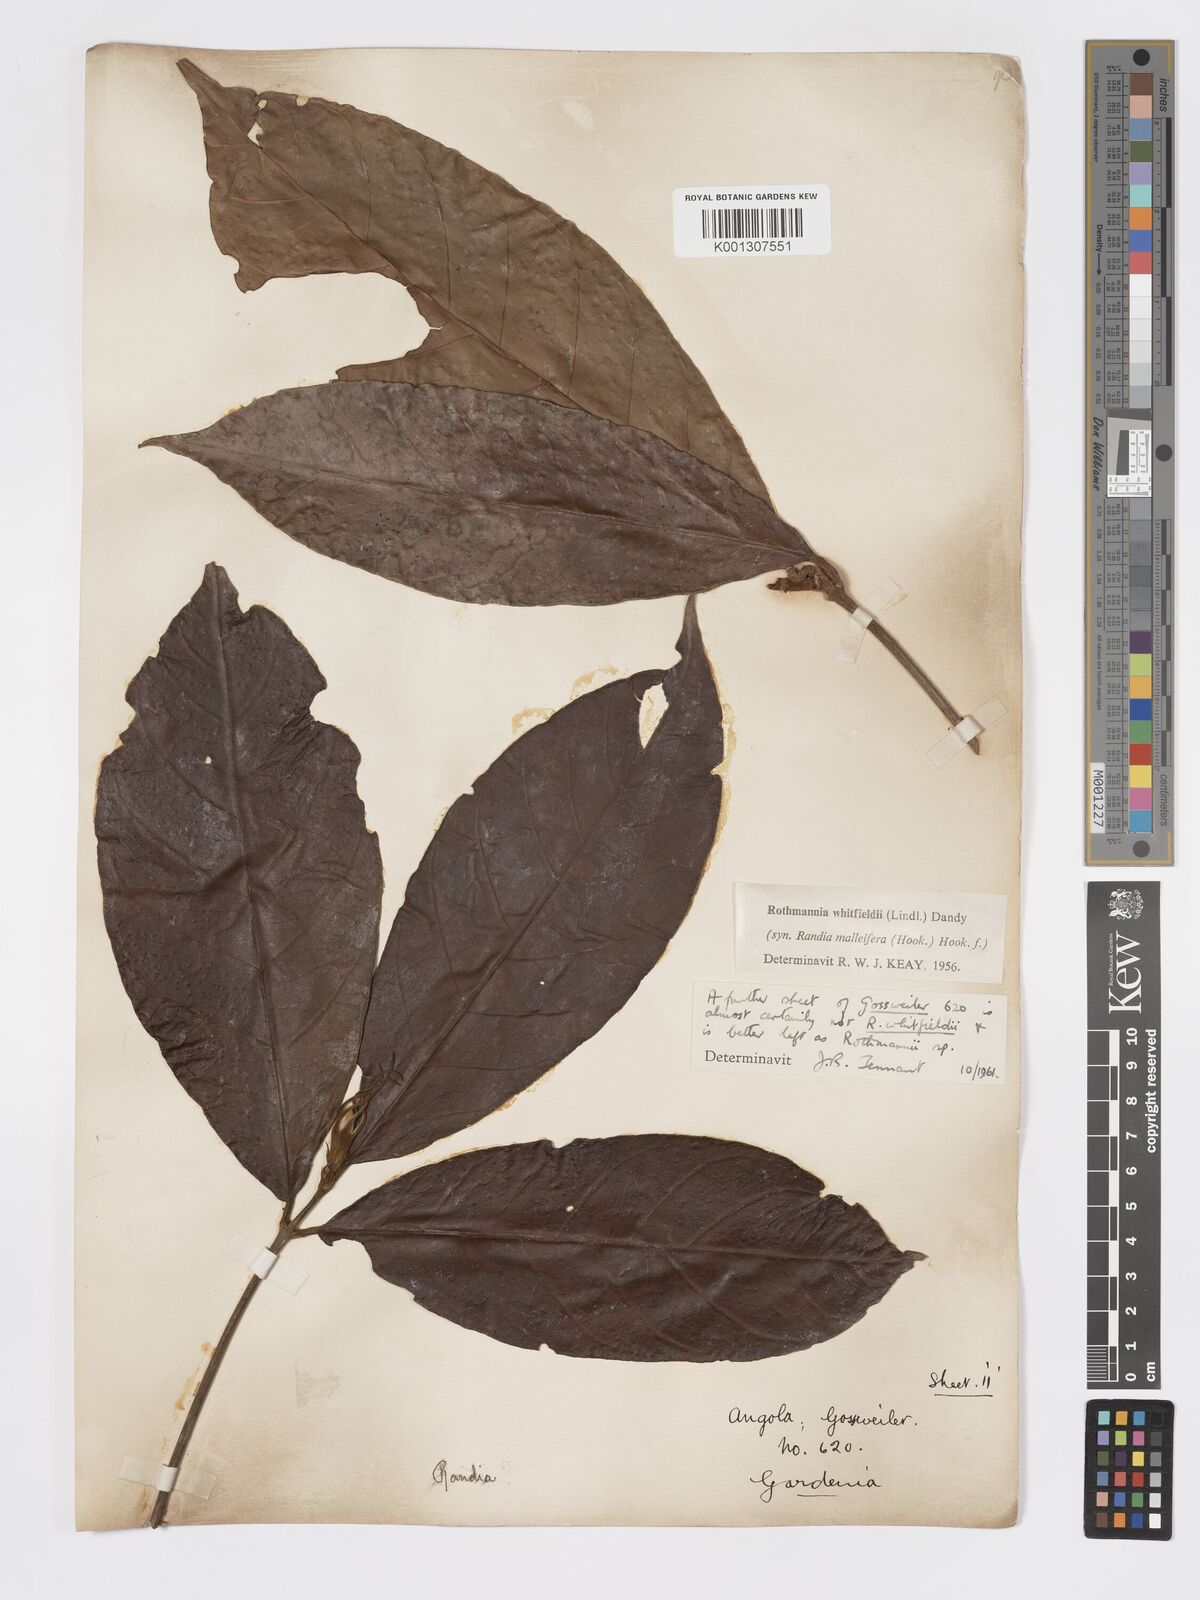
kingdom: Plantae
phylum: Tracheophyta
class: Magnoliopsida
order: Gentianales
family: Rubiaceae
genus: Rothmannia
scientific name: Rothmannia whitfieldii
